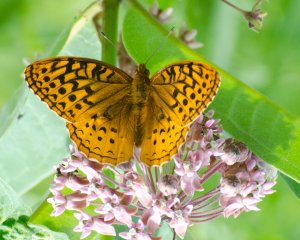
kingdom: Animalia
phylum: Arthropoda
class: Insecta
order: Lepidoptera
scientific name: Lepidoptera
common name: Butterflies
